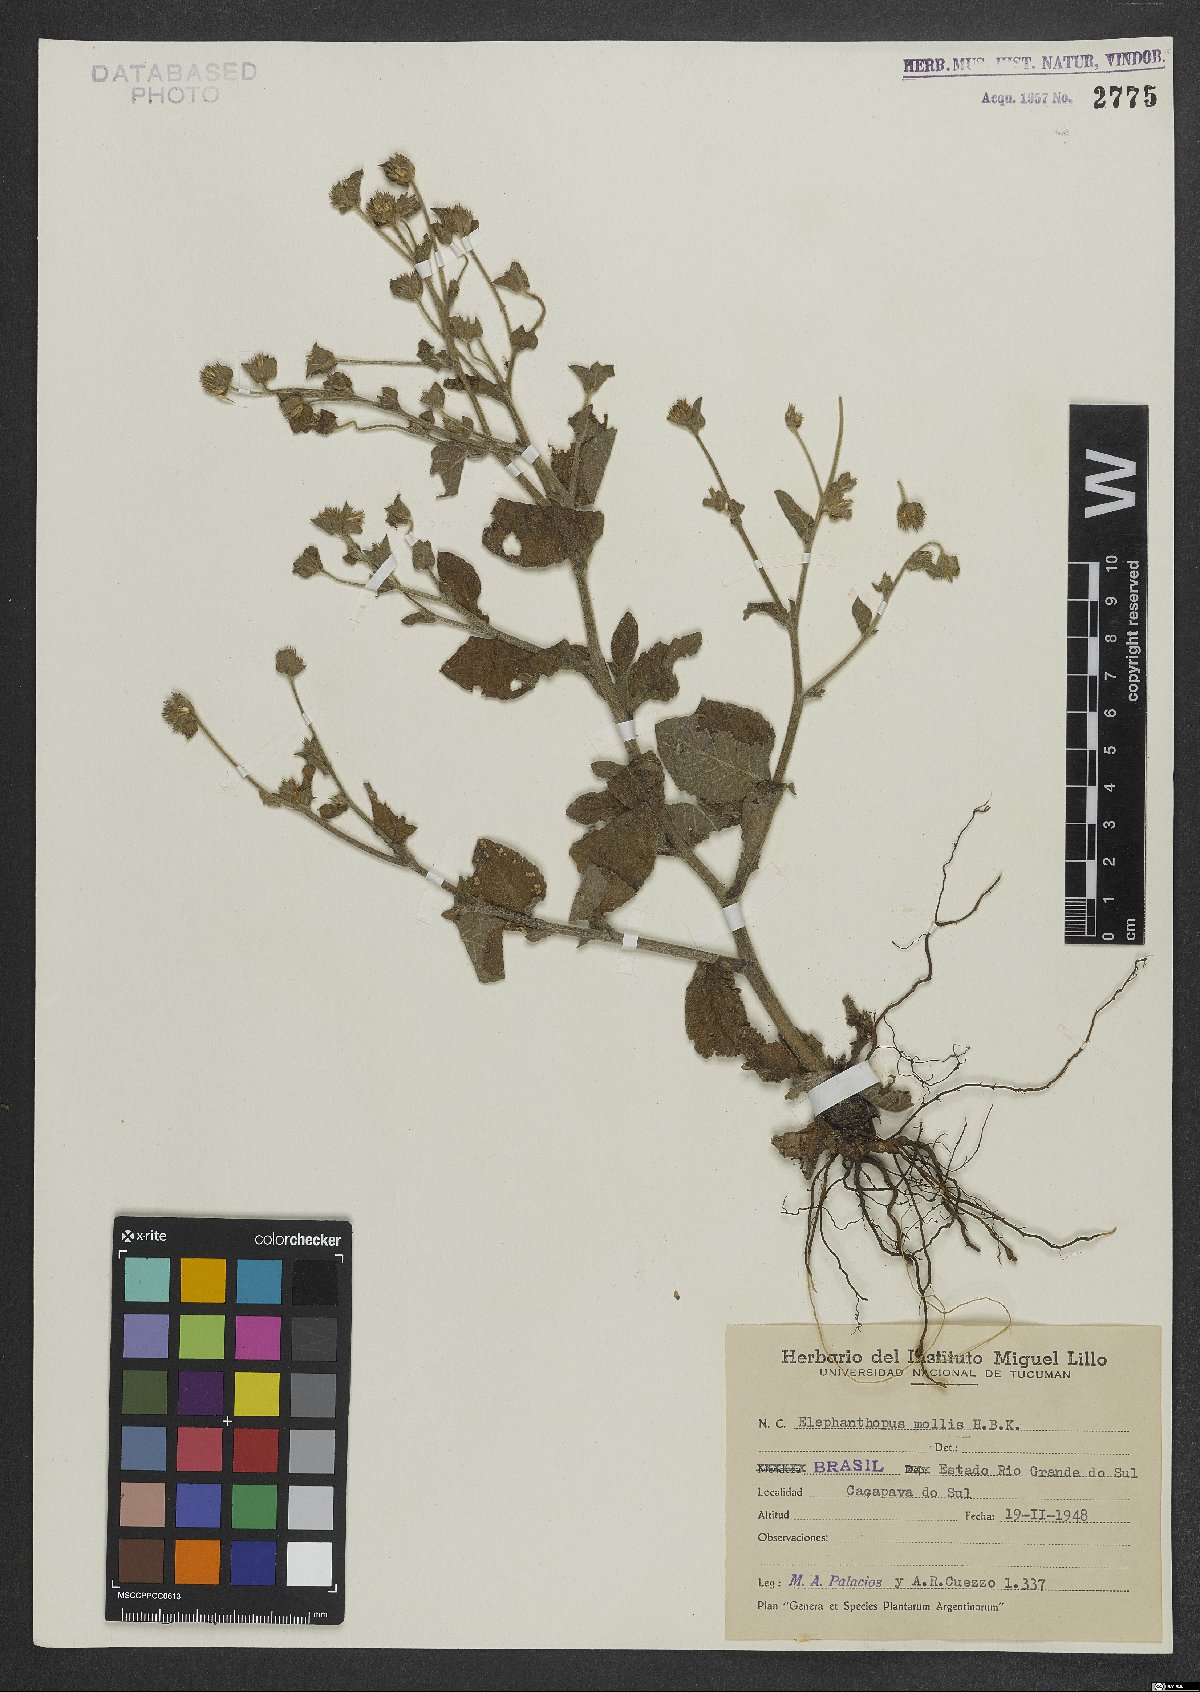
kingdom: Plantae
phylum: Tracheophyta
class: Magnoliopsida
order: Asterales
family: Asteraceae
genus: Elephantopus
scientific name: Elephantopus mollis
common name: Soft elephantsfoot
